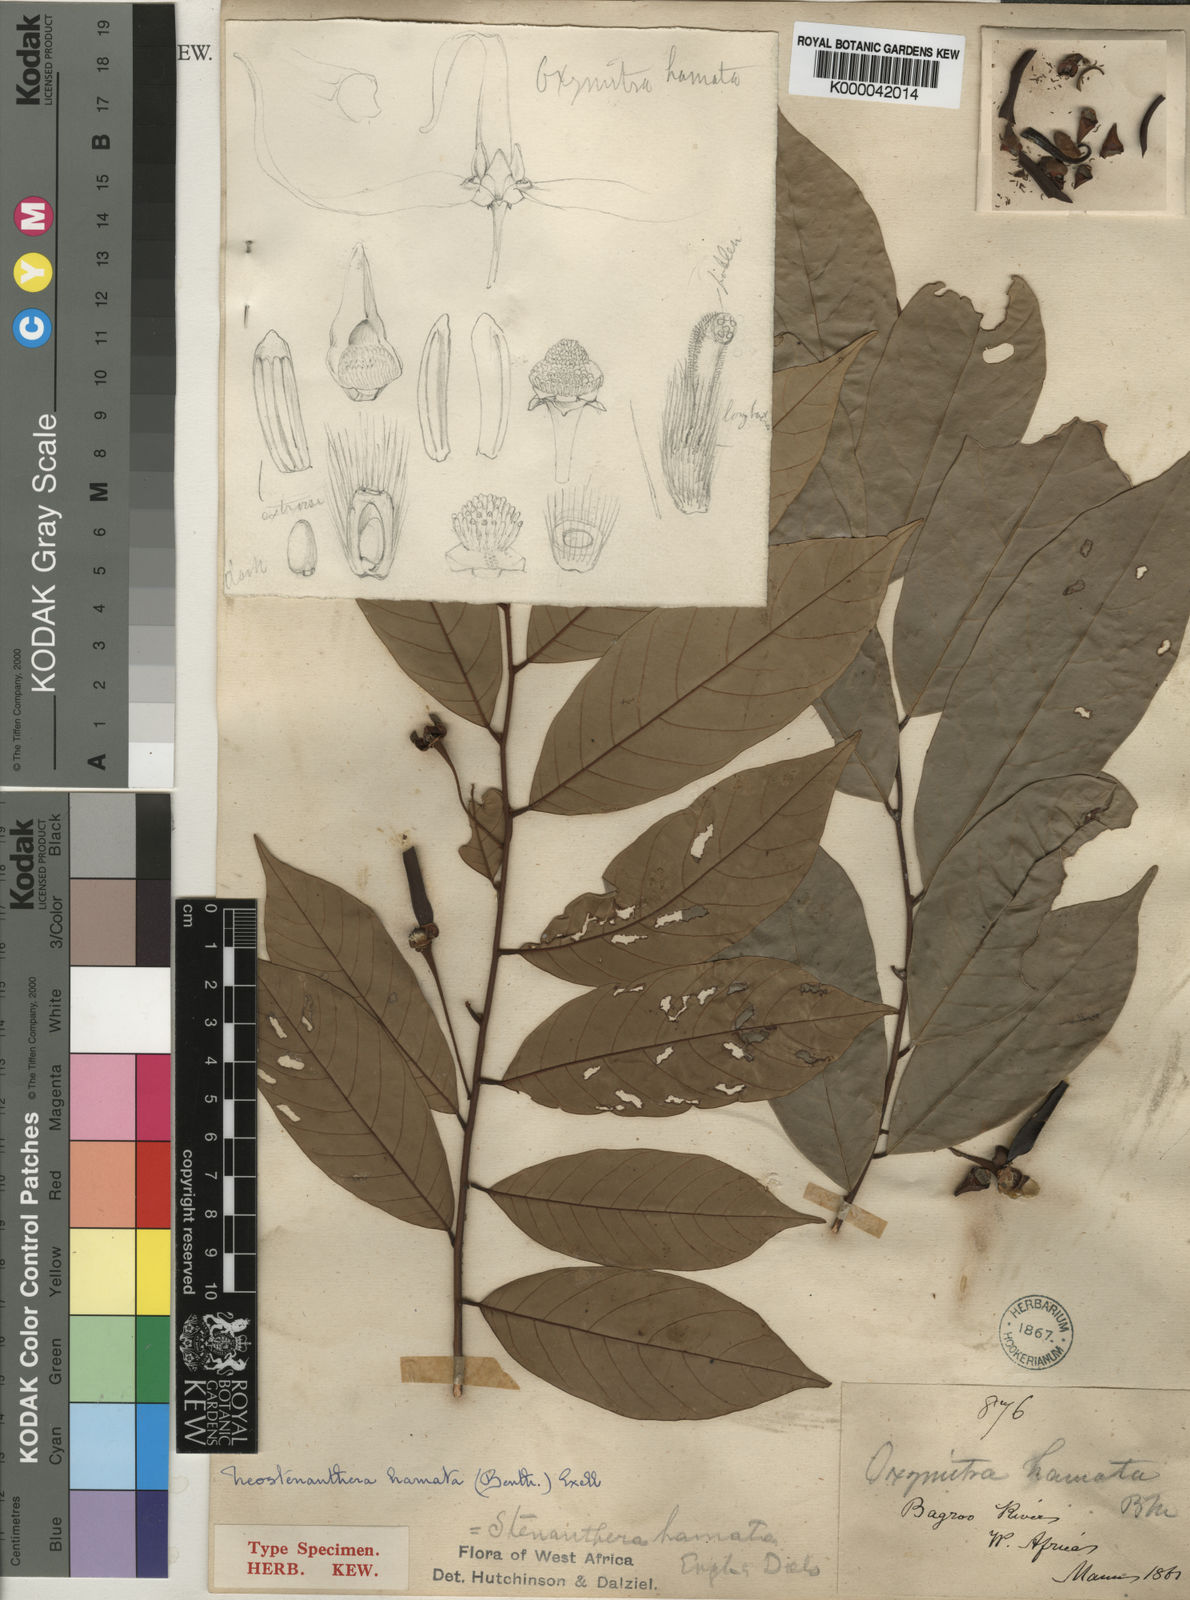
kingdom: Plantae
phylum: Tracheophyta
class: Magnoliopsida
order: Magnoliales
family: Annonaceae
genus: Neostenanthera
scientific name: Neostenanthera hamata
